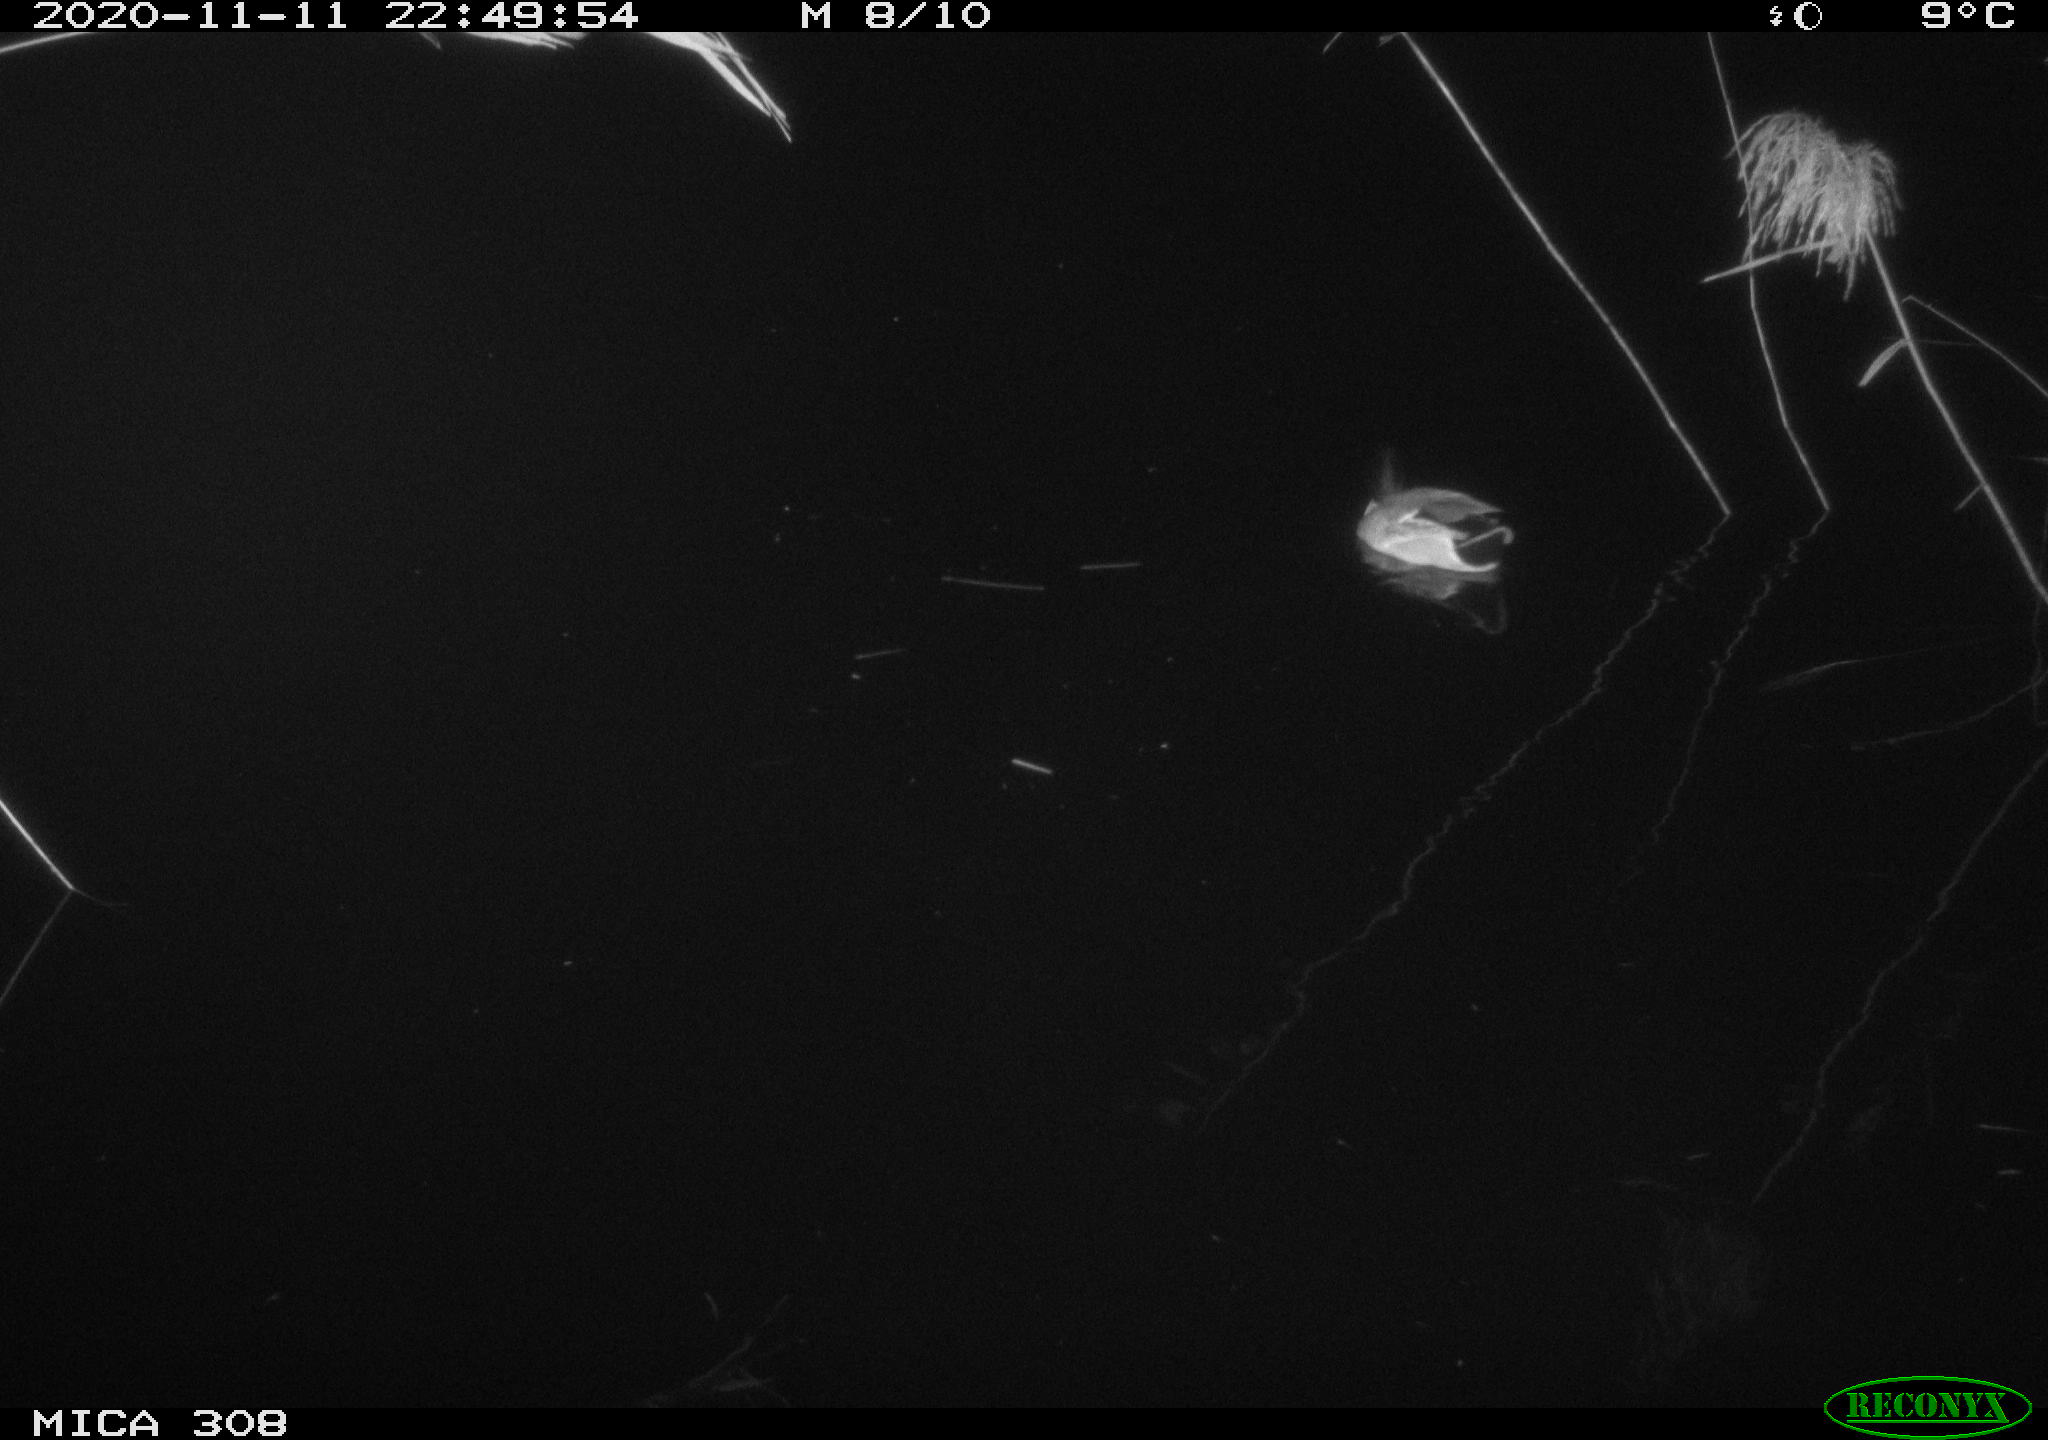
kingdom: Animalia
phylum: Chordata
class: Aves
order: Anseriformes
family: Anatidae
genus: Anas
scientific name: Anas platyrhynchos
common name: Mallard
